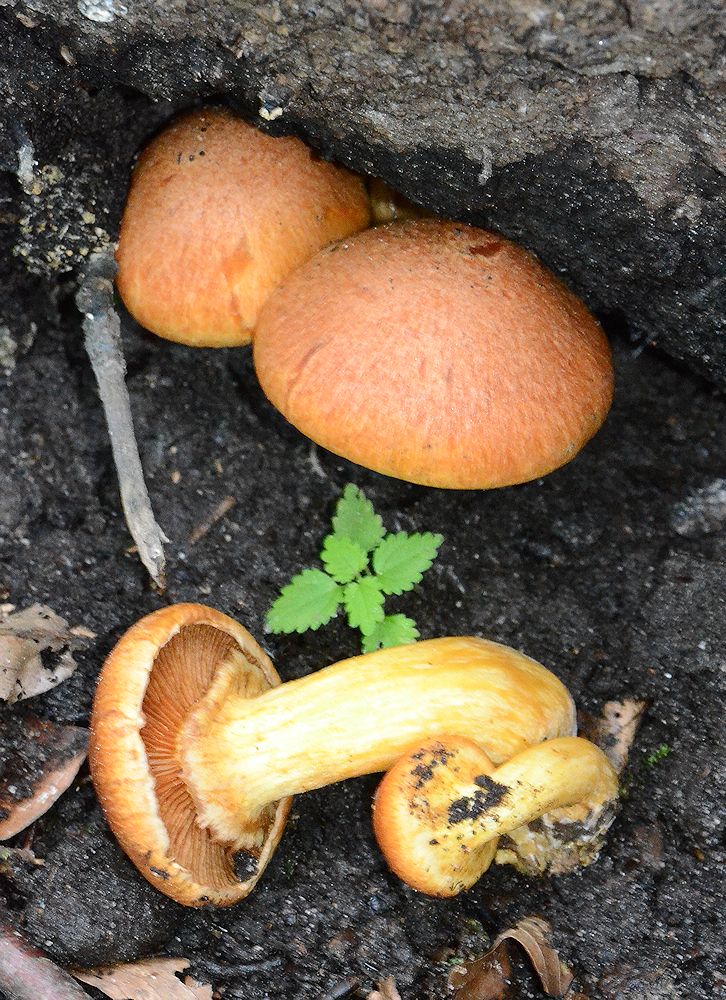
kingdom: Fungi
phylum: Basidiomycota
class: Agaricomycetes
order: Agaricales
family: Hymenogastraceae
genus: Gymnopilus
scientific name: Gymnopilus spectabilis
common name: fibret flammehat
